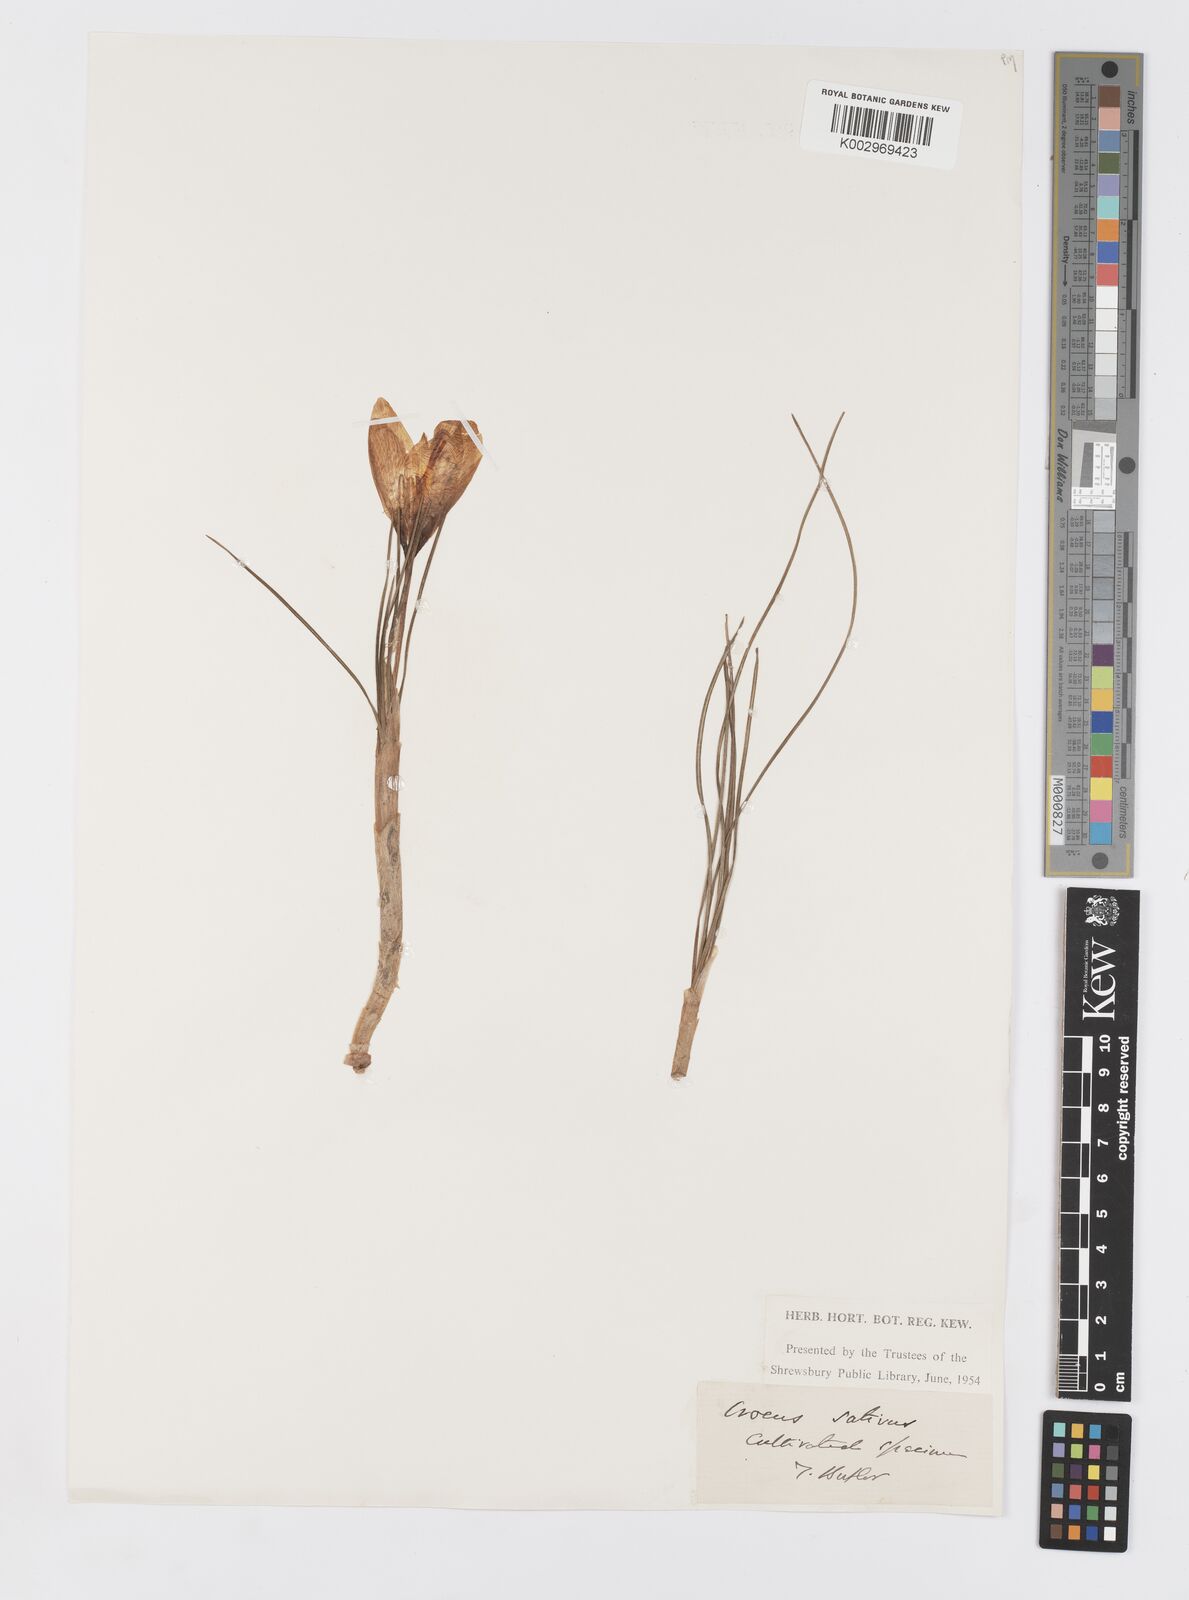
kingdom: Plantae
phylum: Tracheophyta
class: Liliopsida
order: Asparagales
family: Iridaceae
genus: Crocus
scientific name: Crocus sativus
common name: Saffron crocus
